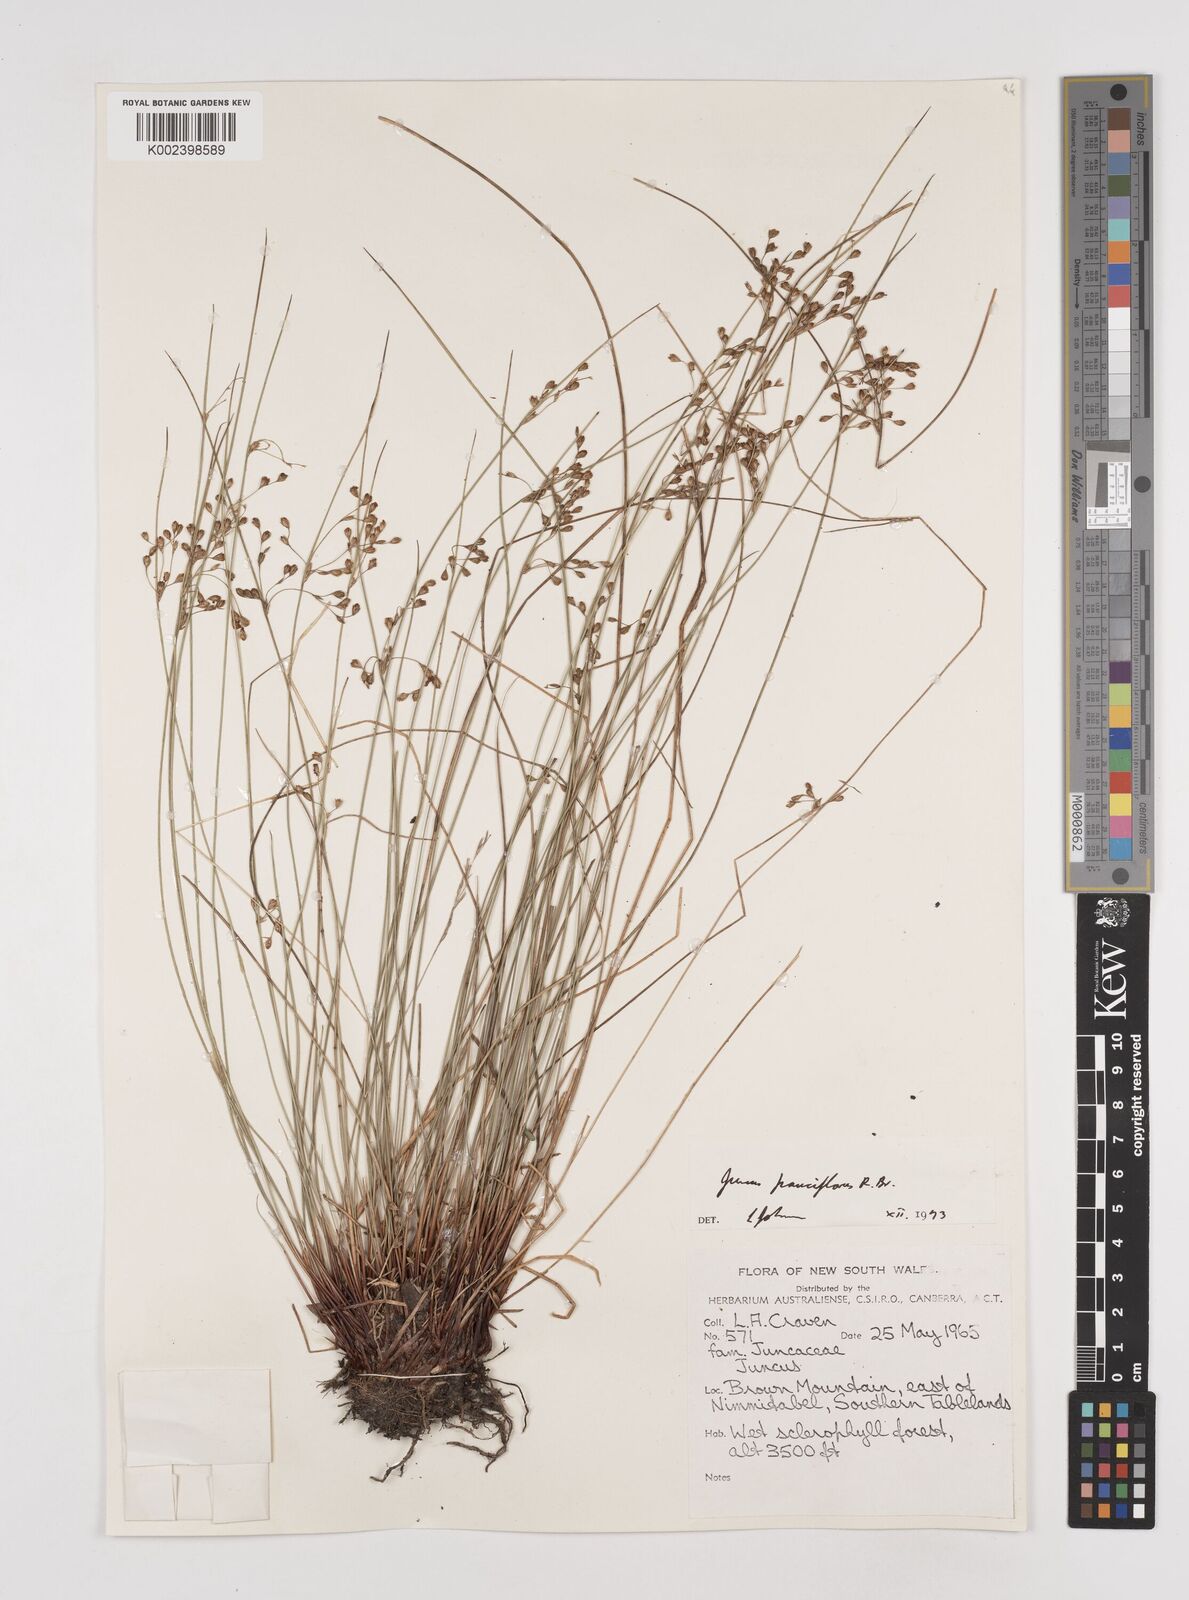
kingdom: Plantae
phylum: Tracheophyta
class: Liliopsida
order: Poales
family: Juncaceae
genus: Juncus
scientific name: Juncus pauciflorus
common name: Loose-flowered rush
